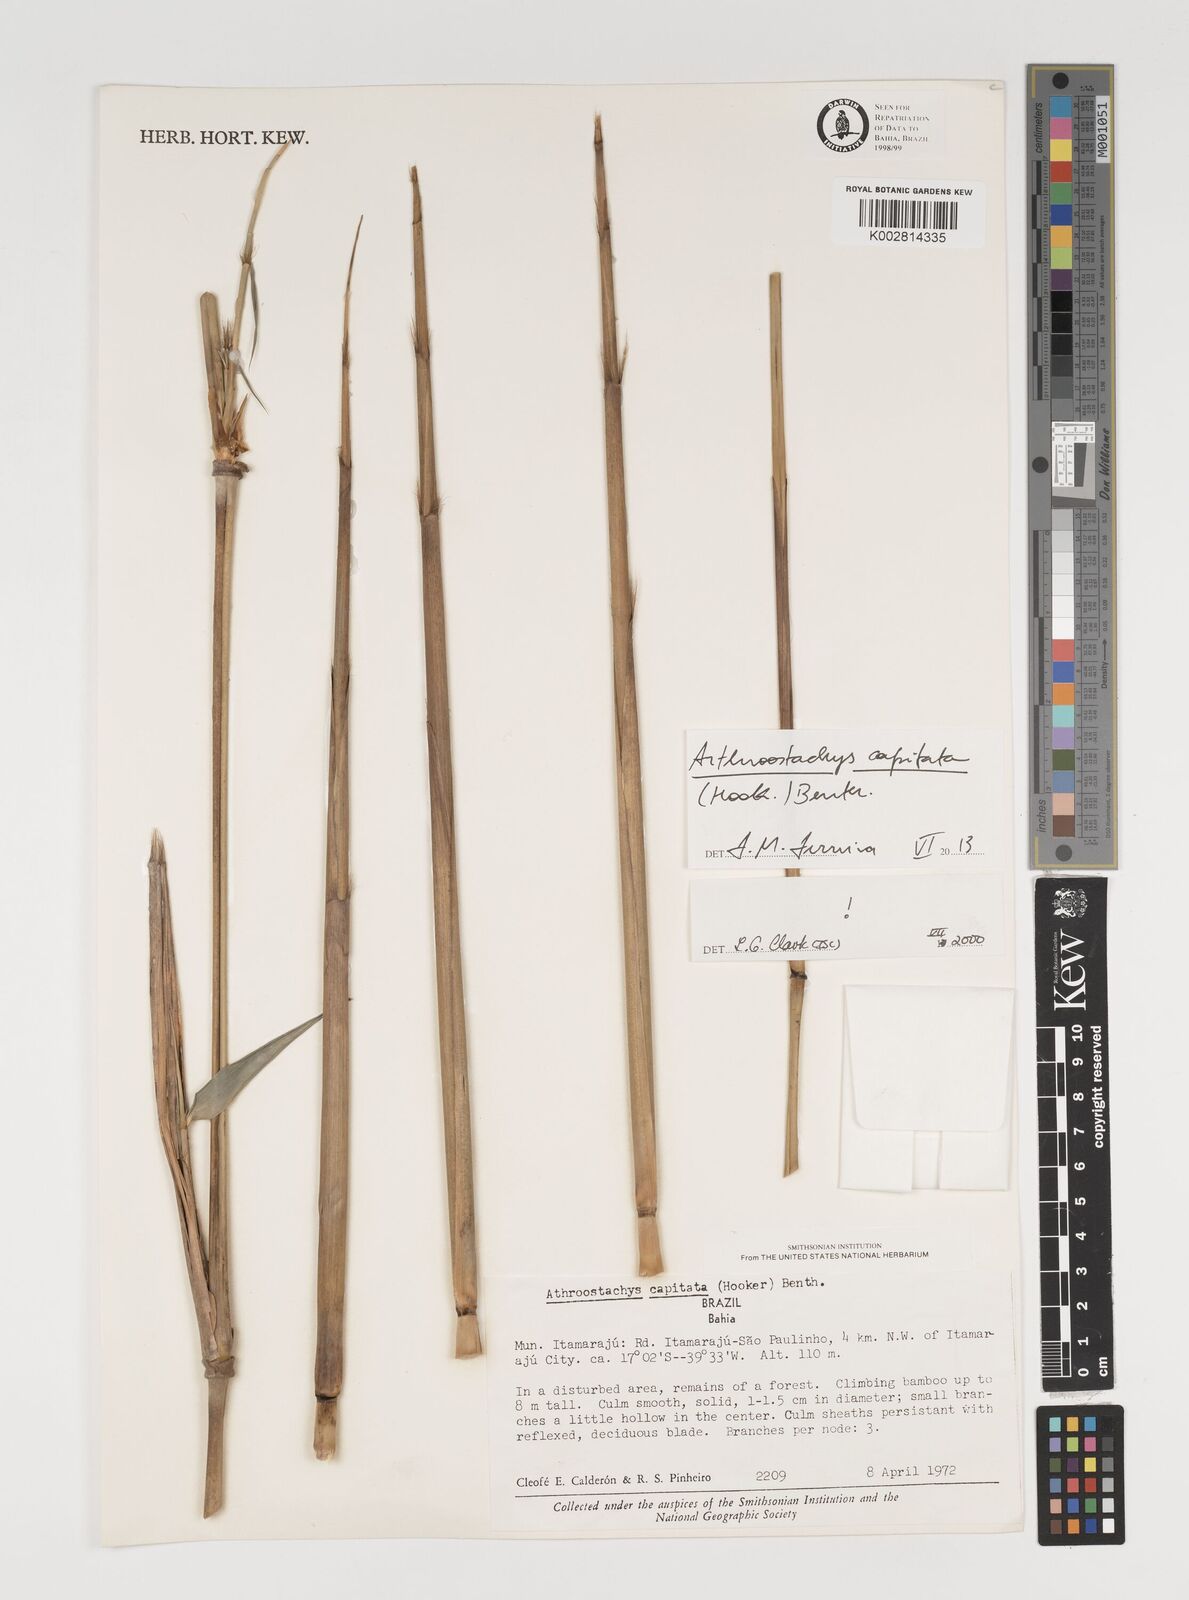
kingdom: Plantae
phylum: Tracheophyta
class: Liliopsida
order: Poales
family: Poaceae
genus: Athroostachys
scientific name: Athroostachys capitata
